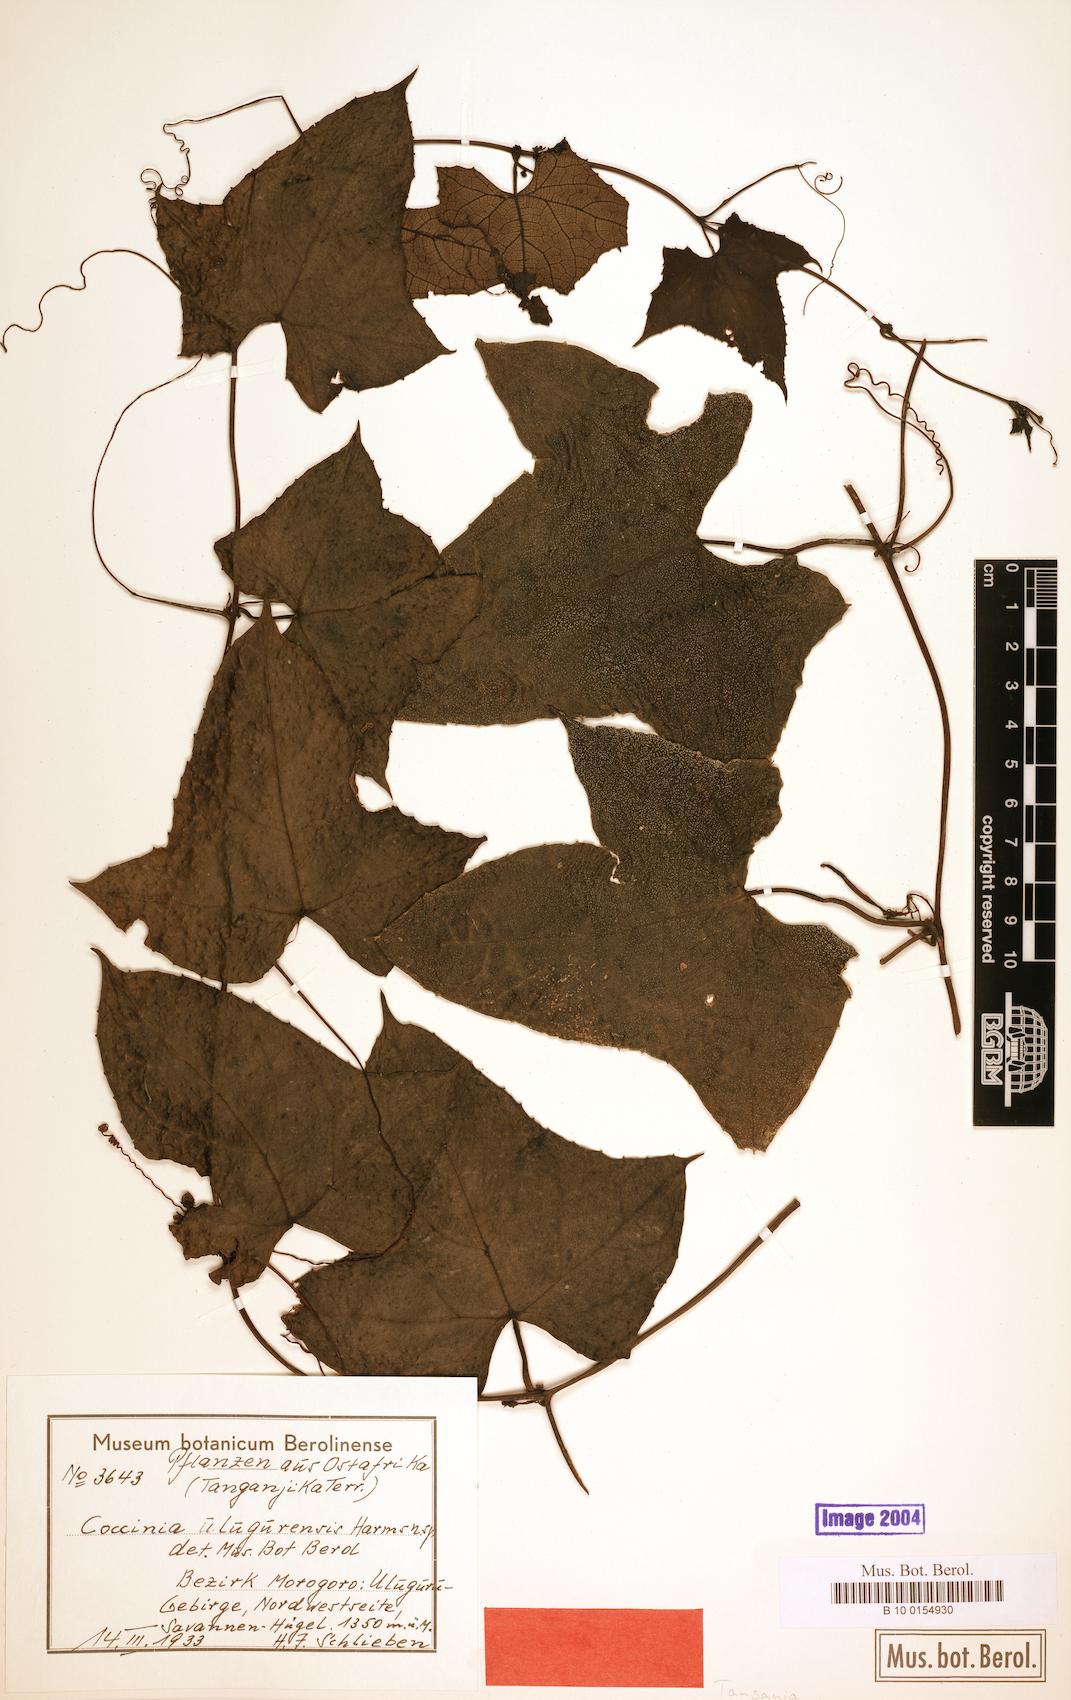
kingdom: Plantae
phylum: Tracheophyta
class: Magnoliopsida
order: Cucurbitales
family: Cucurbitaceae
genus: Coccinia
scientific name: Coccinia mildbraedii
